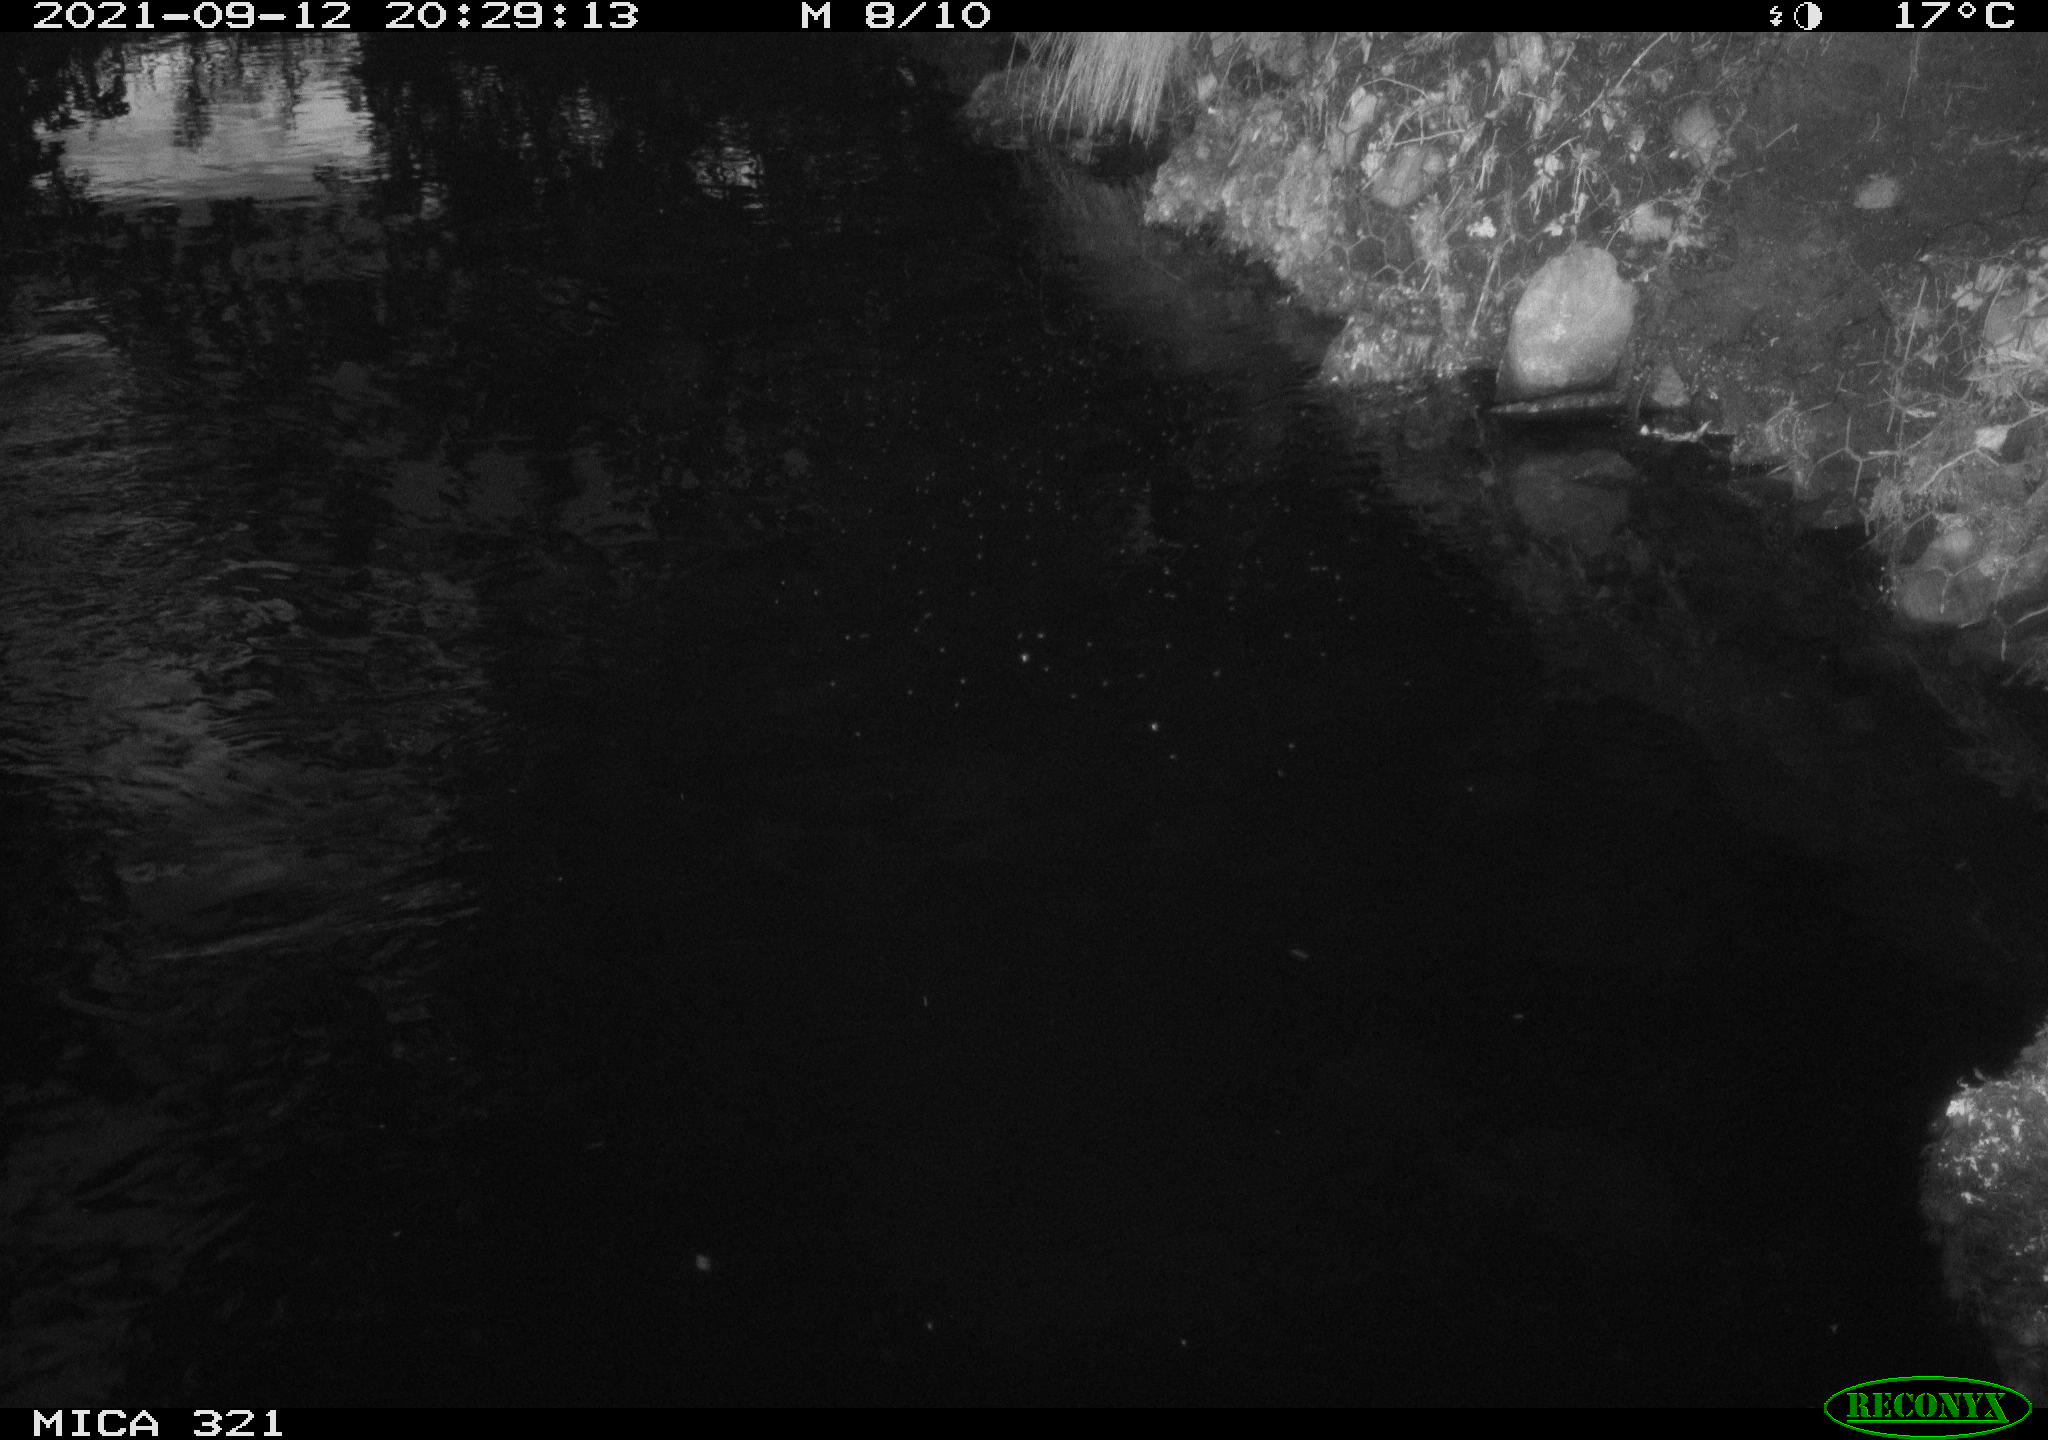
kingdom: Animalia
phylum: Chordata
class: Aves
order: Anseriformes
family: Anatidae
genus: Anas
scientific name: Anas platyrhynchos
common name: Mallard
